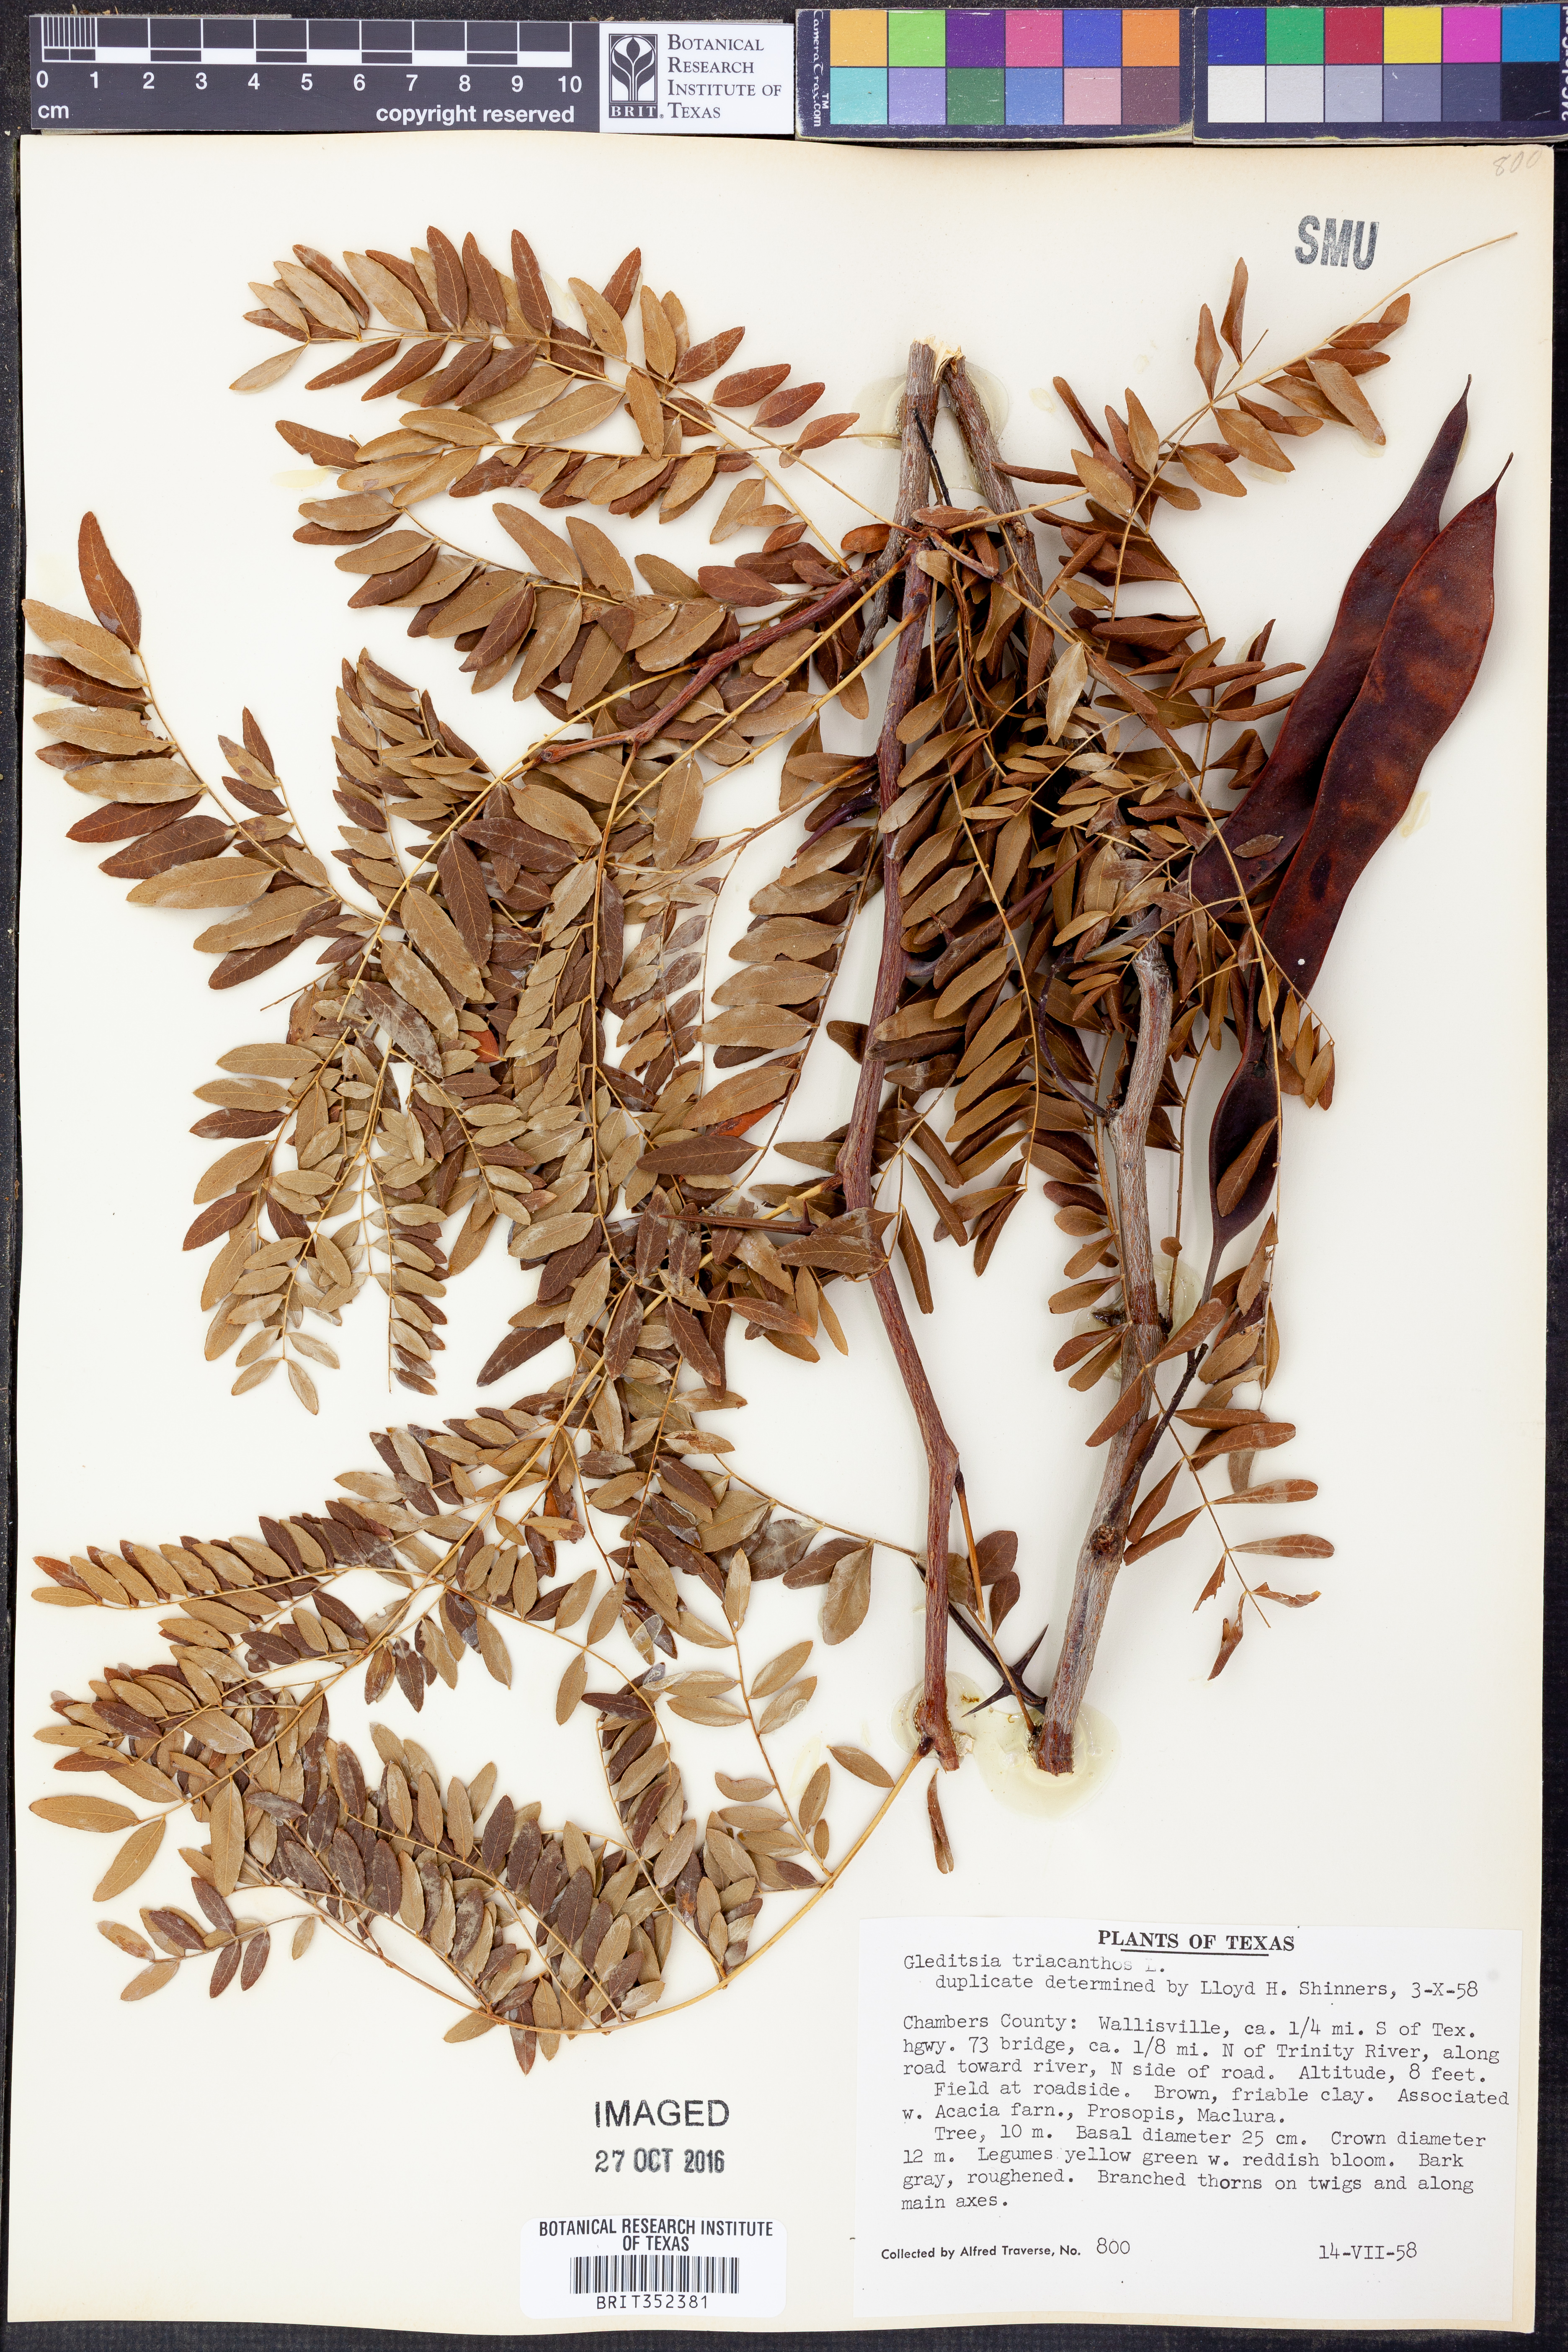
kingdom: Plantae
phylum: Tracheophyta
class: Magnoliopsida
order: Fabales
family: Fabaceae
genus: Gleditsia
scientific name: Gleditsia triacanthos
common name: Common honeylocust
